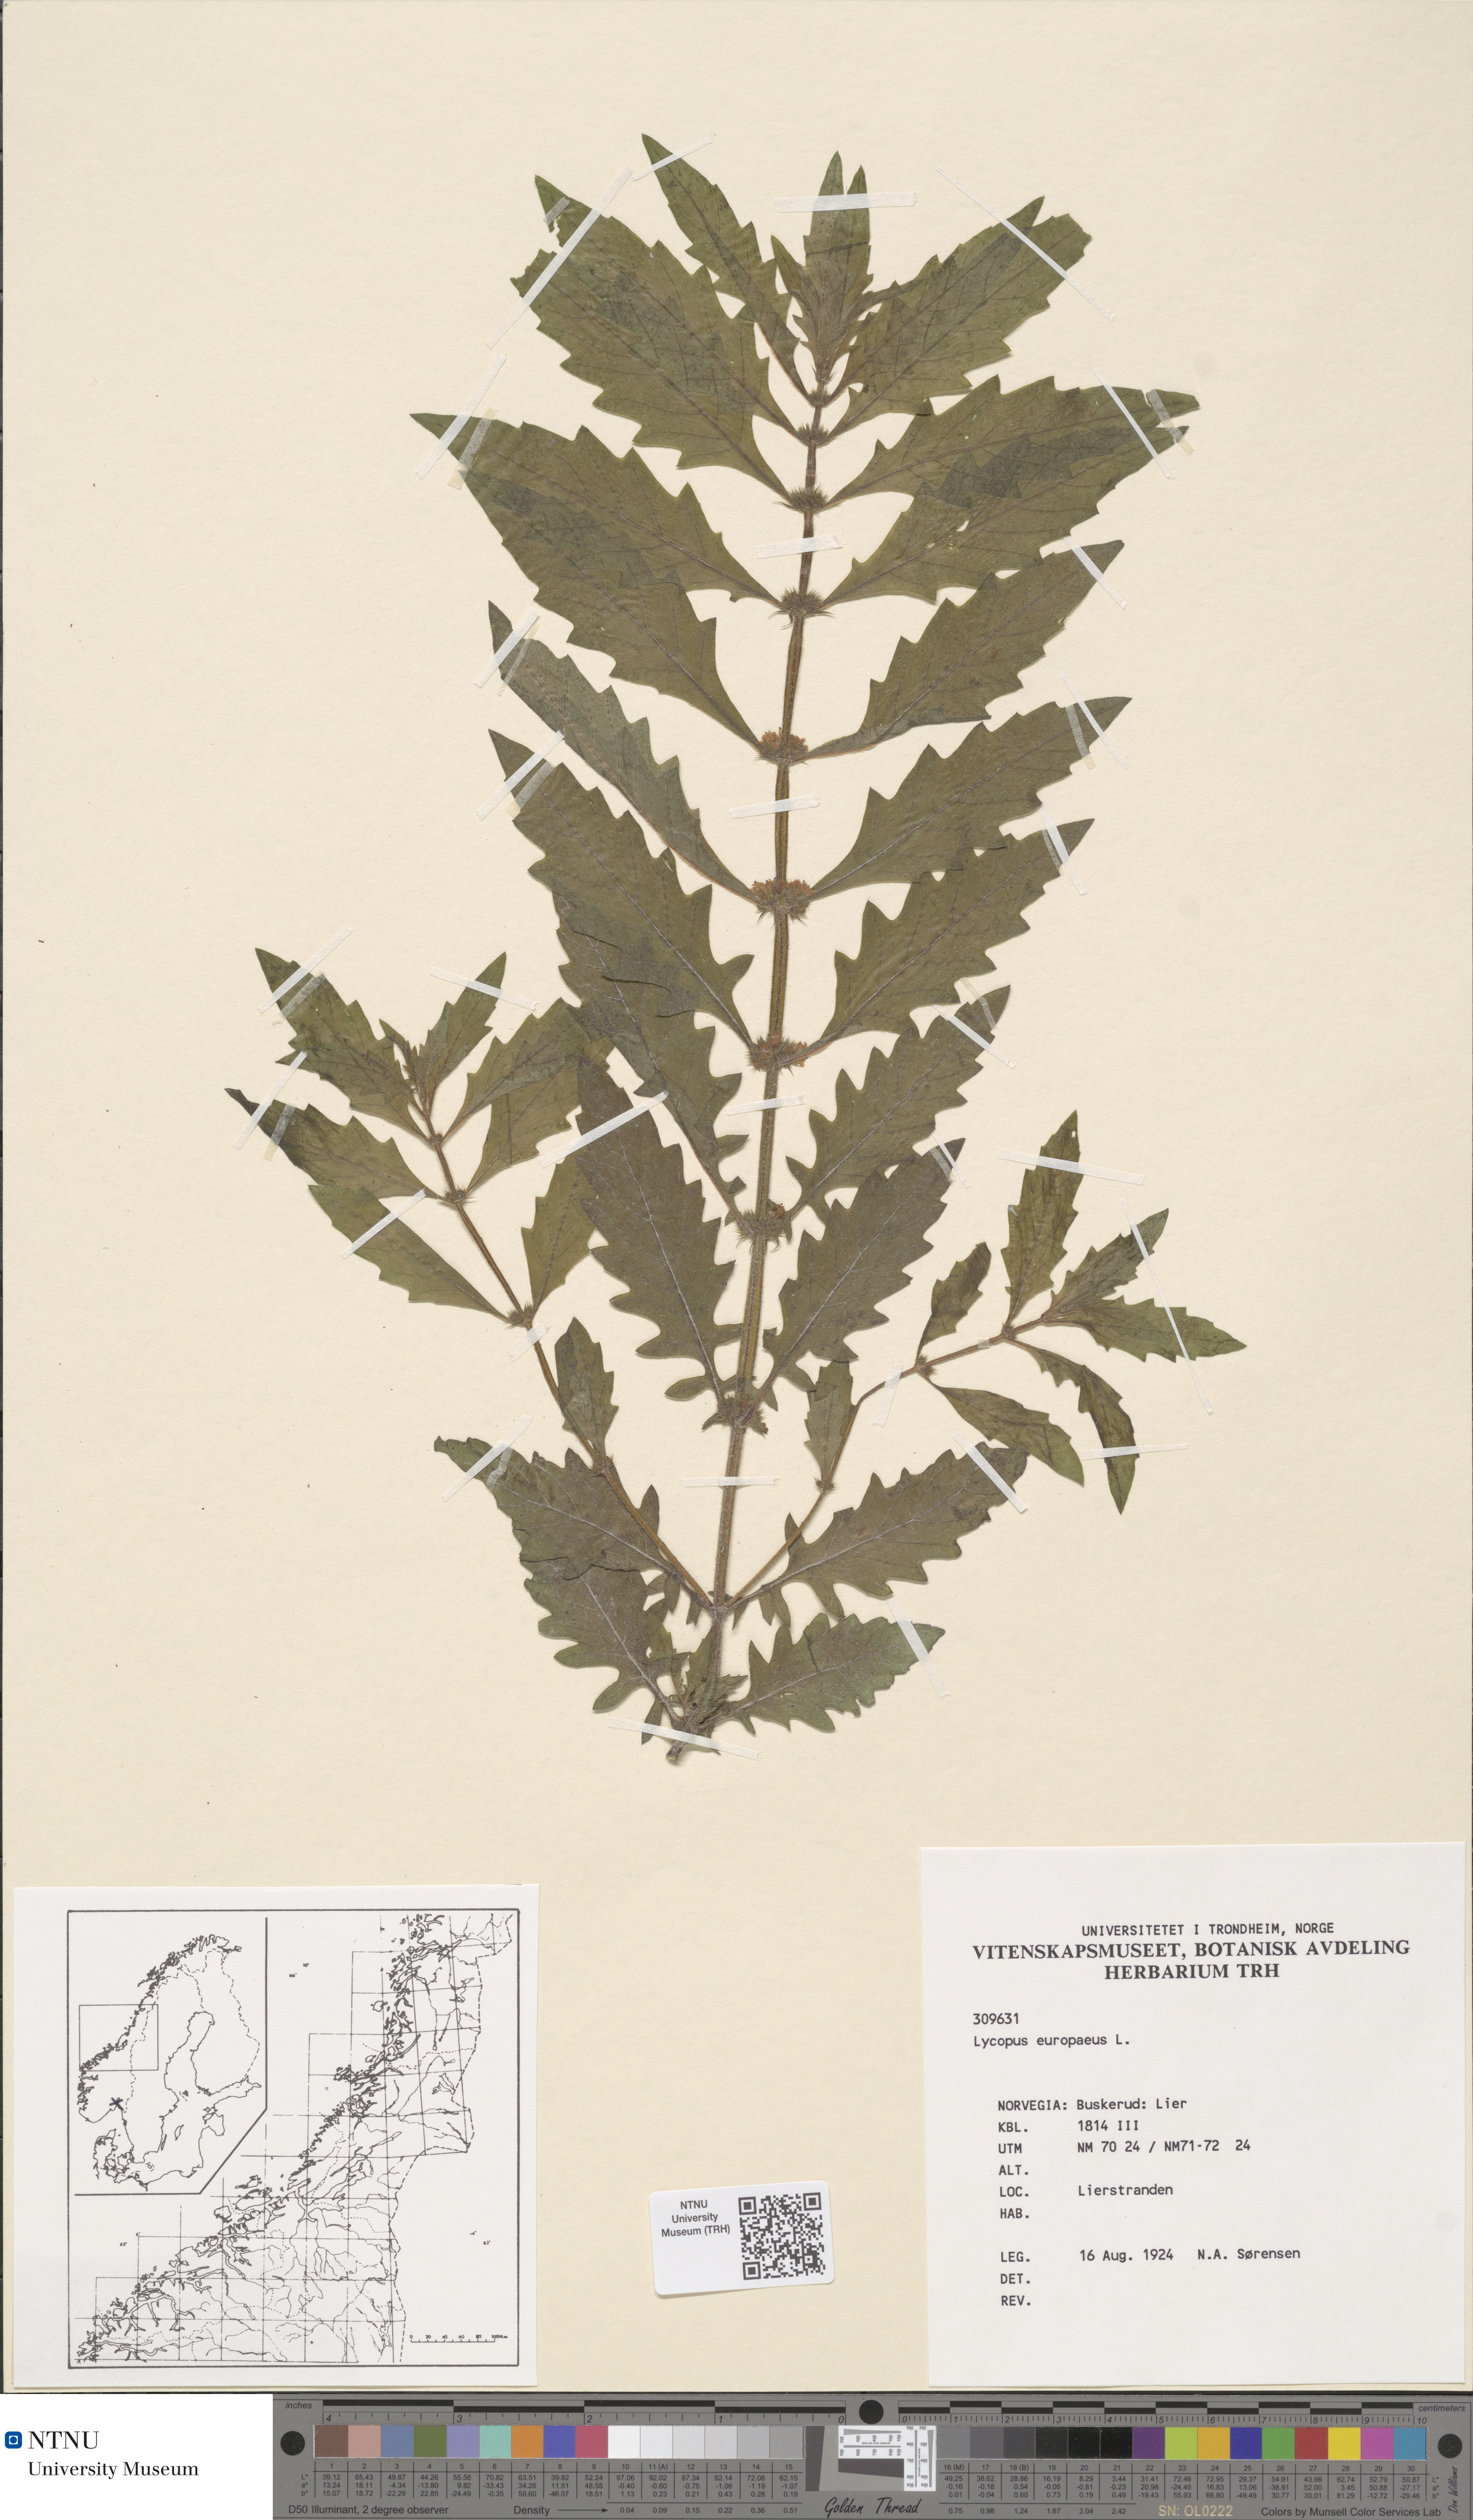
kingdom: Plantae
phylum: Tracheophyta
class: Magnoliopsida
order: Lamiales
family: Lamiaceae
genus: Lycopus
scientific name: Lycopus europaeus
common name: European bugleweed
